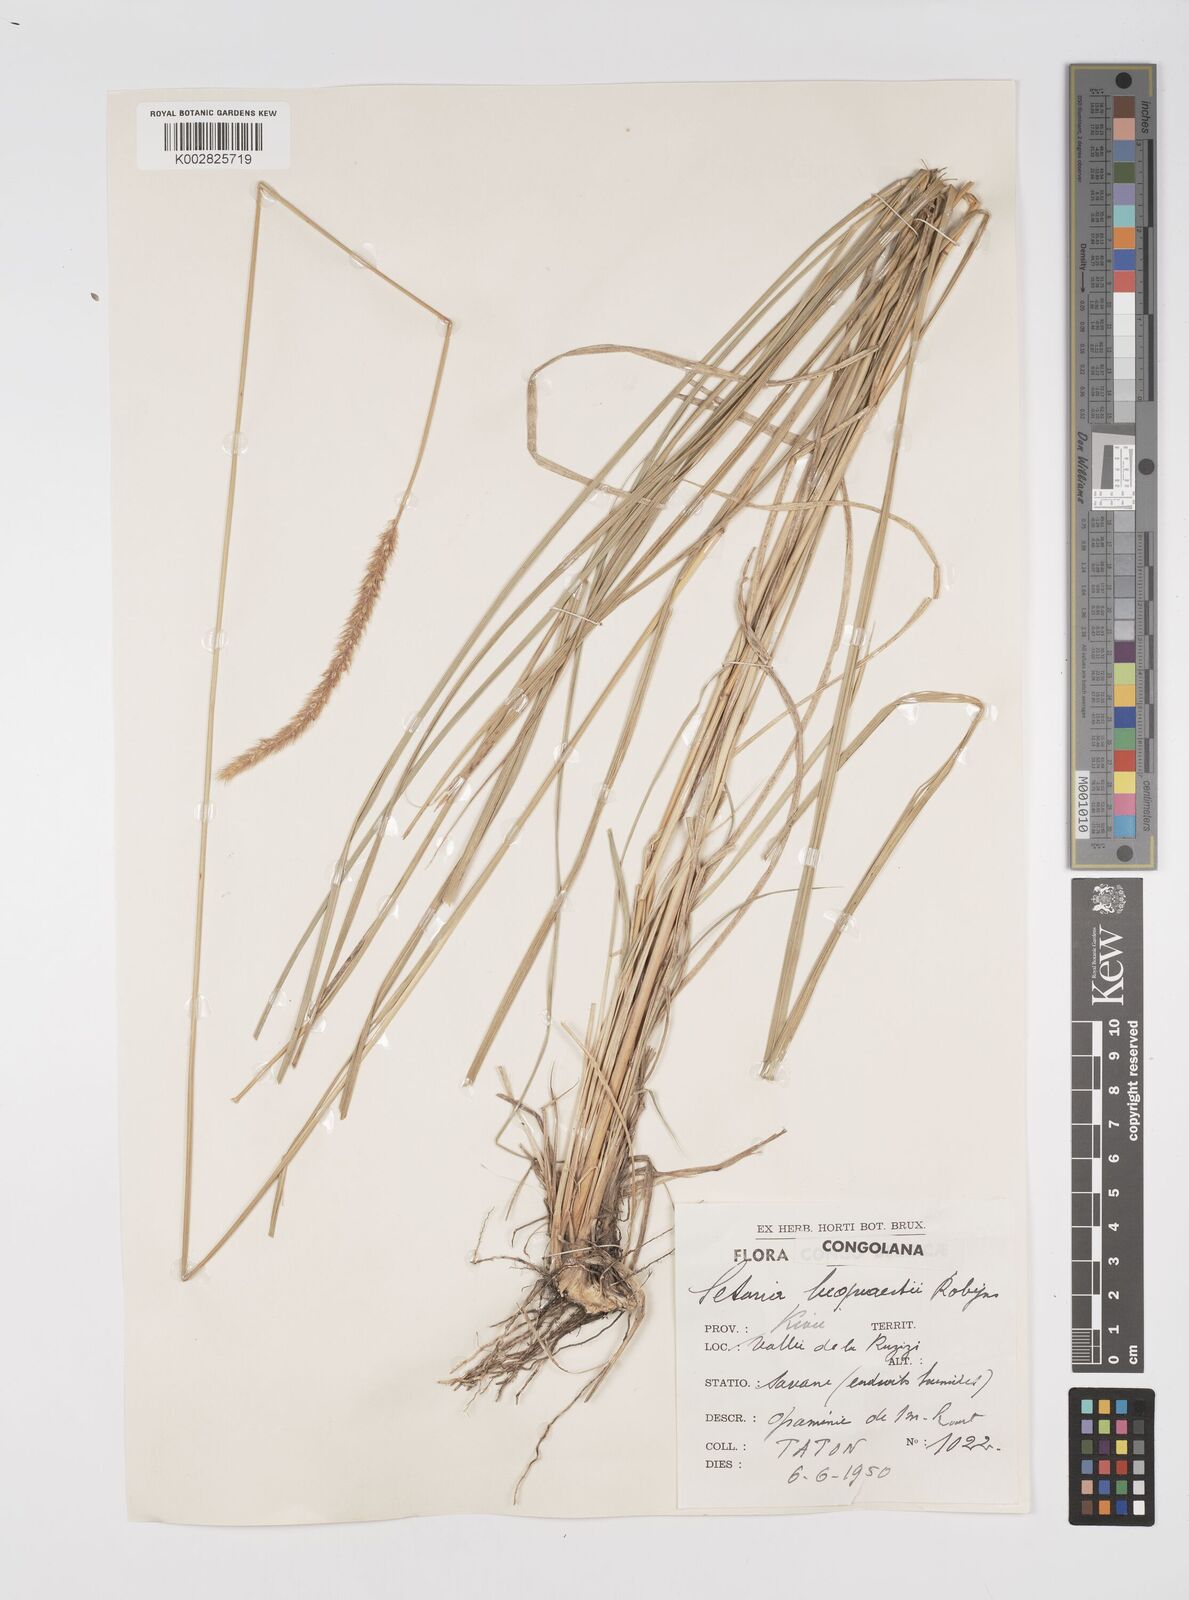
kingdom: Plantae
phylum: Tracheophyta
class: Liliopsida
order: Poales
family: Poaceae
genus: Setaria
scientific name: Setaria incrassata
